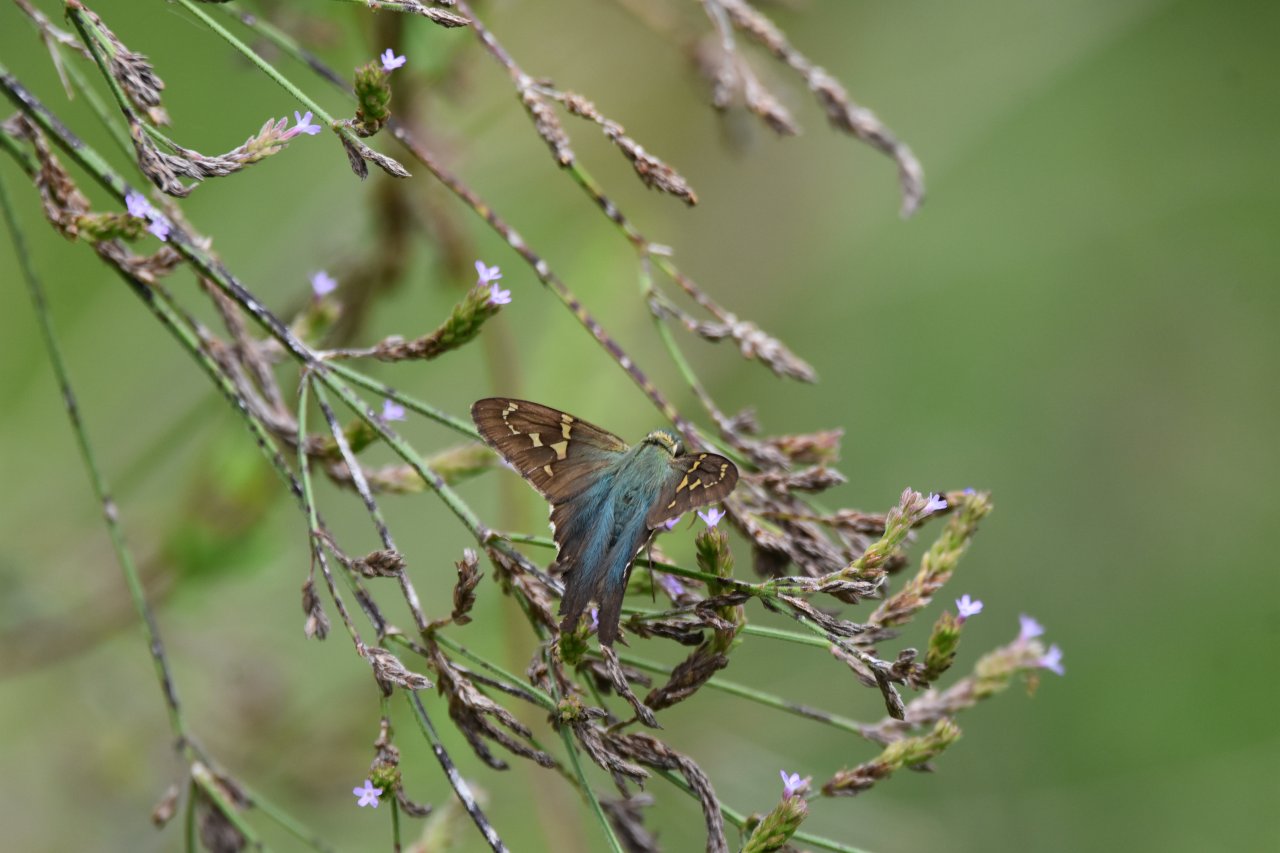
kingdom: Animalia
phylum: Arthropoda
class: Insecta
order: Lepidoptera
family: Hesperiidae
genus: Urbanus
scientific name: Urbanus proteus
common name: Long-tailed Skipper
